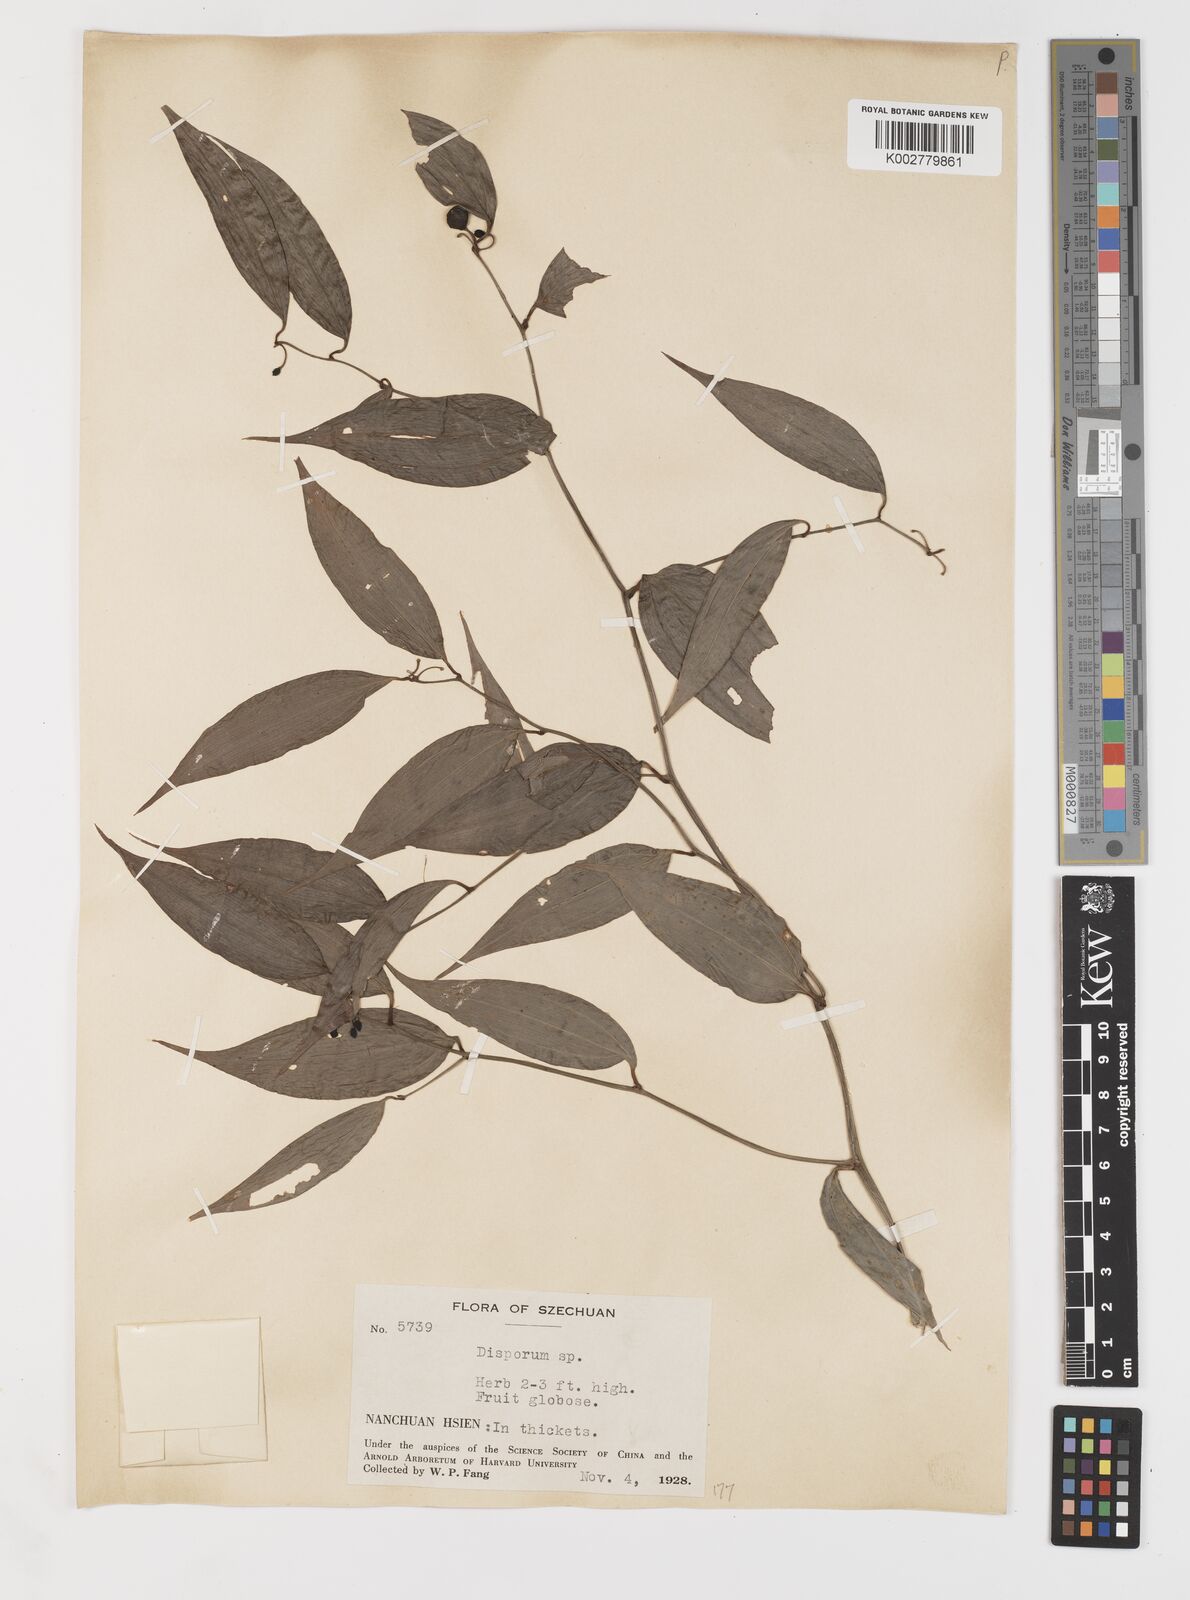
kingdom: Plantae
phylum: Tracheophyta
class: Liliopsida
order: Liliales
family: Colchicaceae
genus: Disporum
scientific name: Disporum
